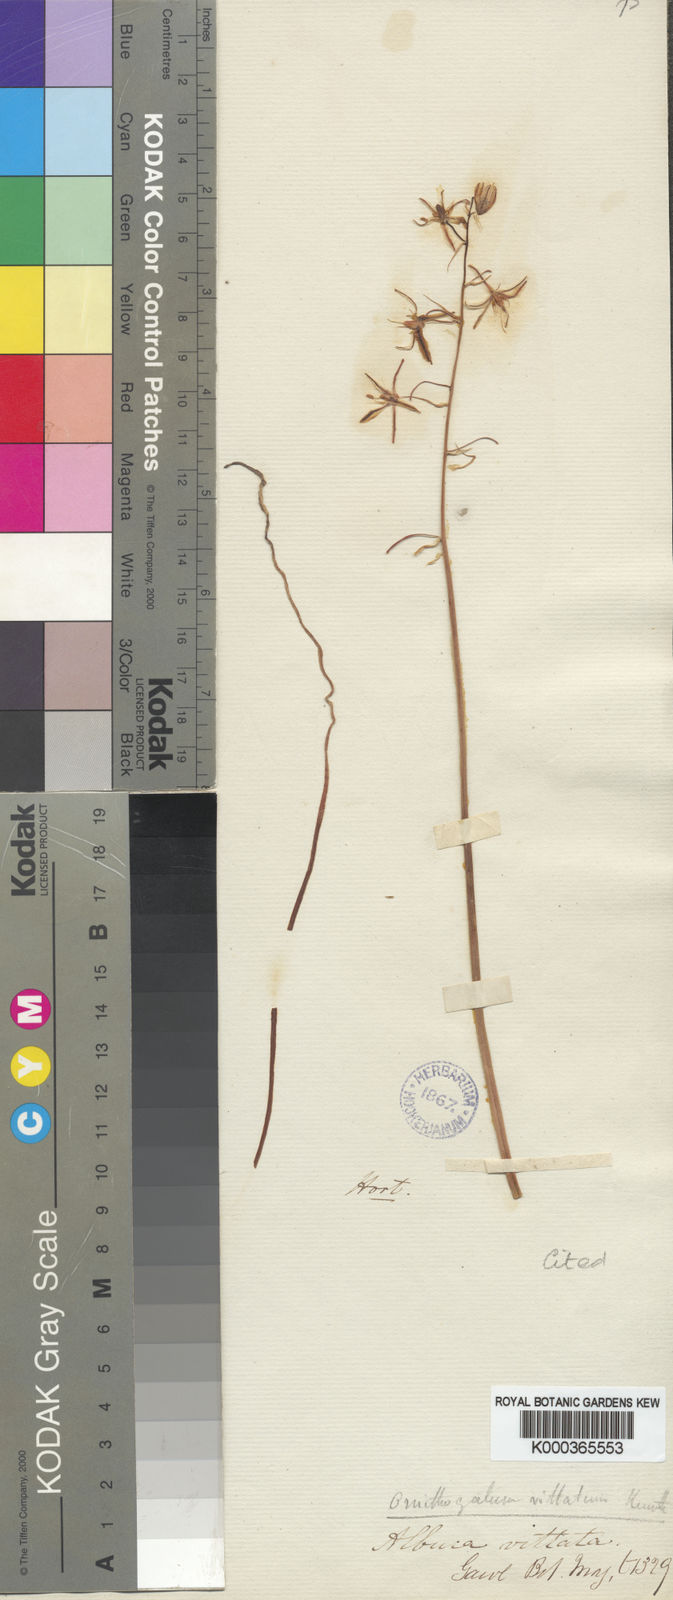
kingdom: Plantae
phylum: Tracheophyta
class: Liliopsida
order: Asparagales
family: Asparagaceae
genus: Albuca
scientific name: Albuca suaveolens
